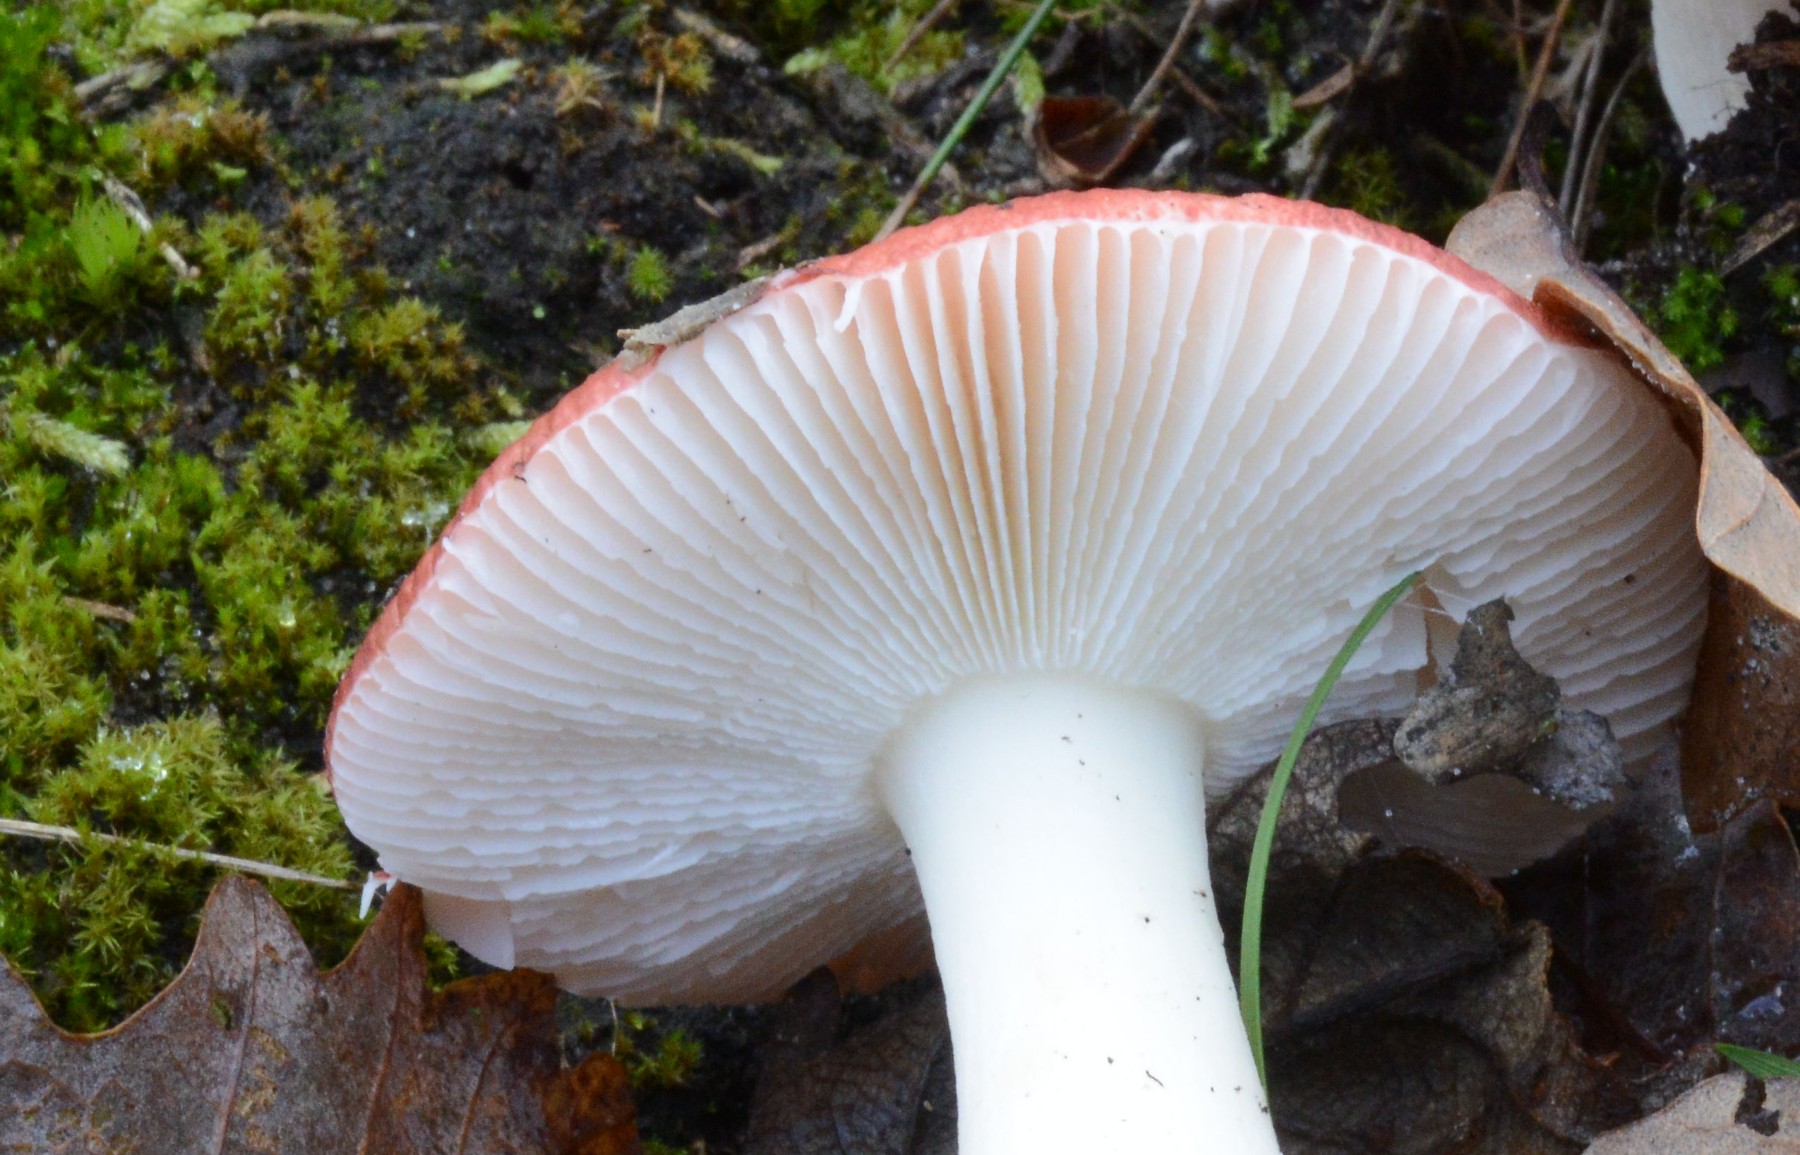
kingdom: Fungi
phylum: Basidiomycota
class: Agaricomycetes
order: Russulales
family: Russulaceae
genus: Russula
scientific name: Russula fragilis
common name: savbladet skørhat
